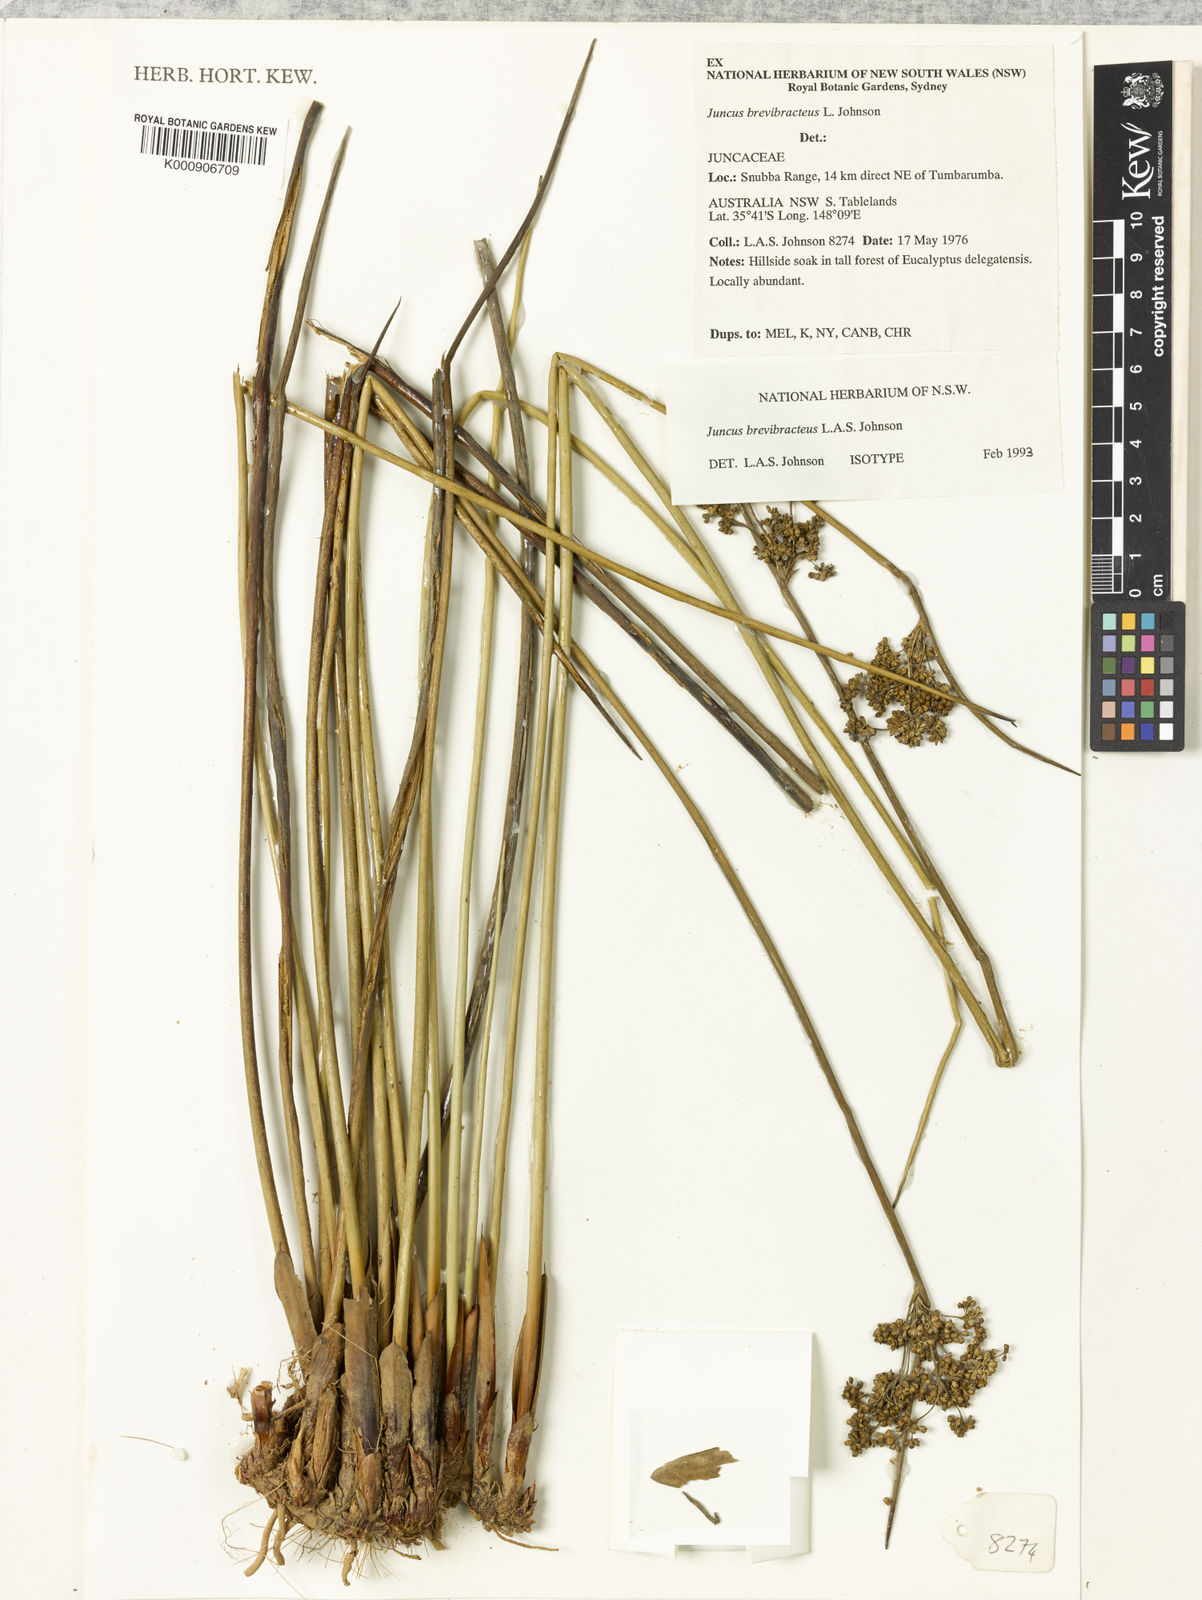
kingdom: Plantae
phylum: Tracheophyta
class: Liliopsida
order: Poales
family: Juncaceae
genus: Juncus
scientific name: Juncus brevibracteus
